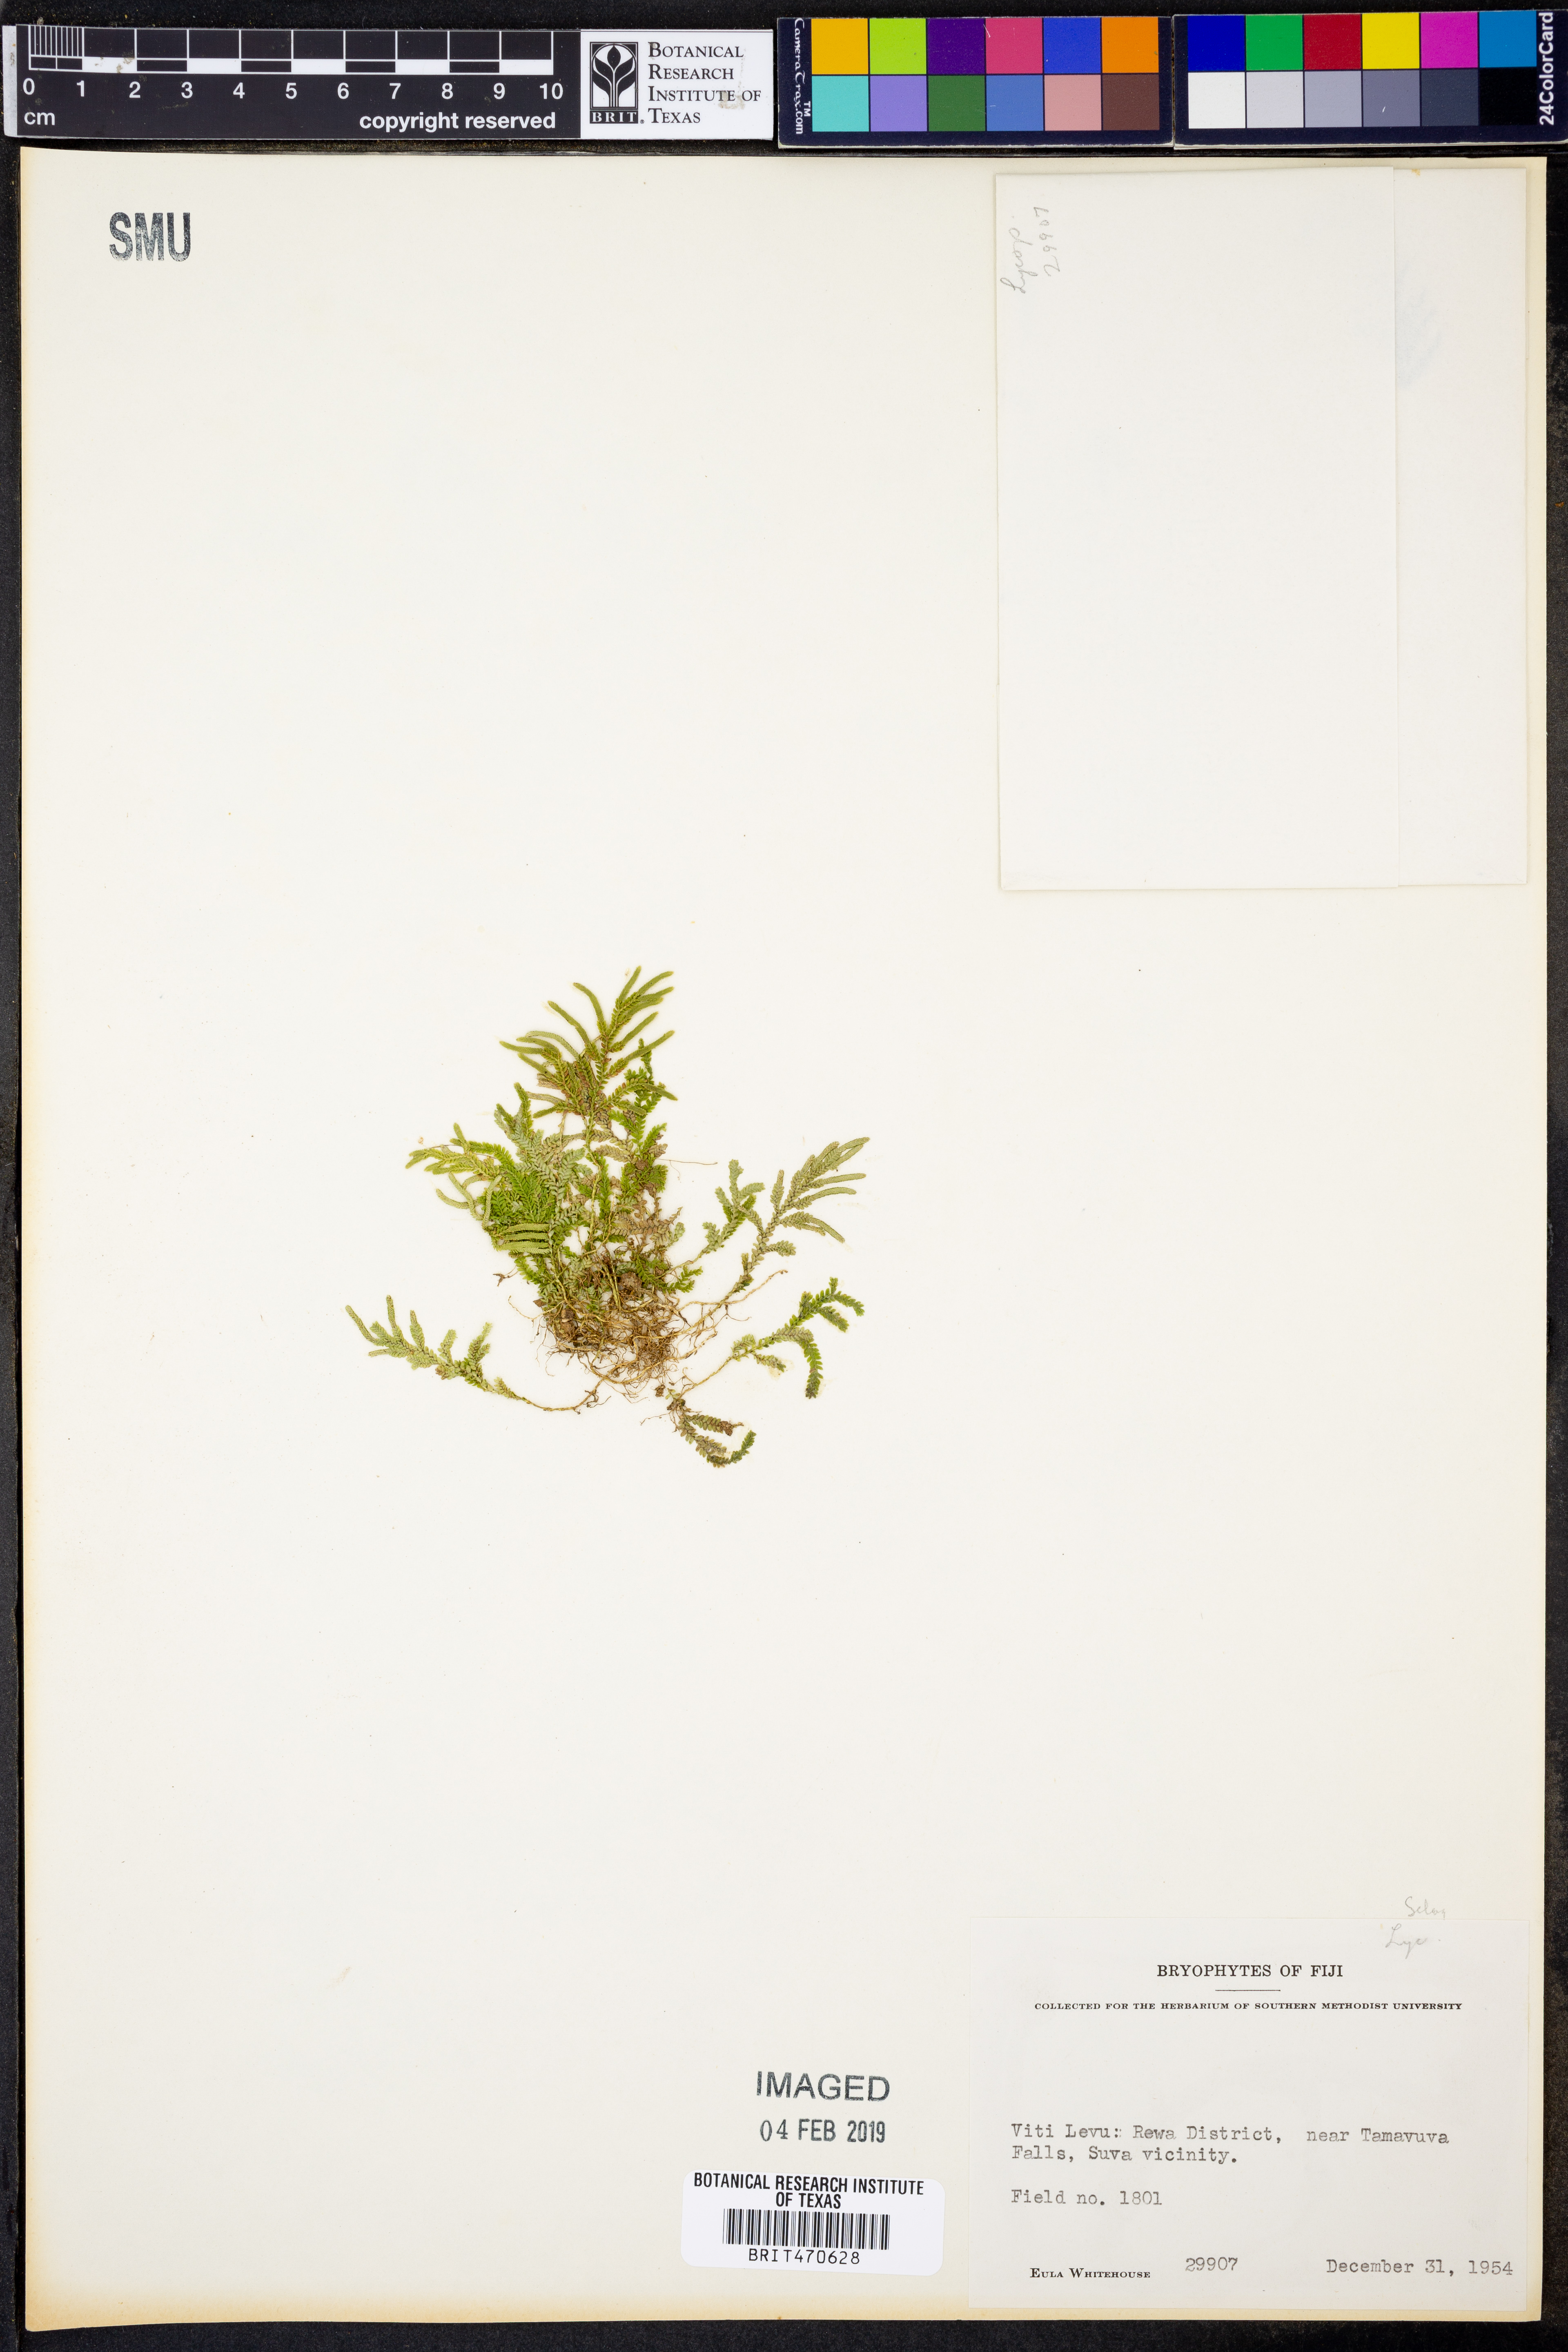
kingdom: Plantae
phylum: Tracheophyta
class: Lycopodiopsida
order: Selaginellales
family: Selaginellaceae
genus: Selaginella
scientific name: Selaginella
